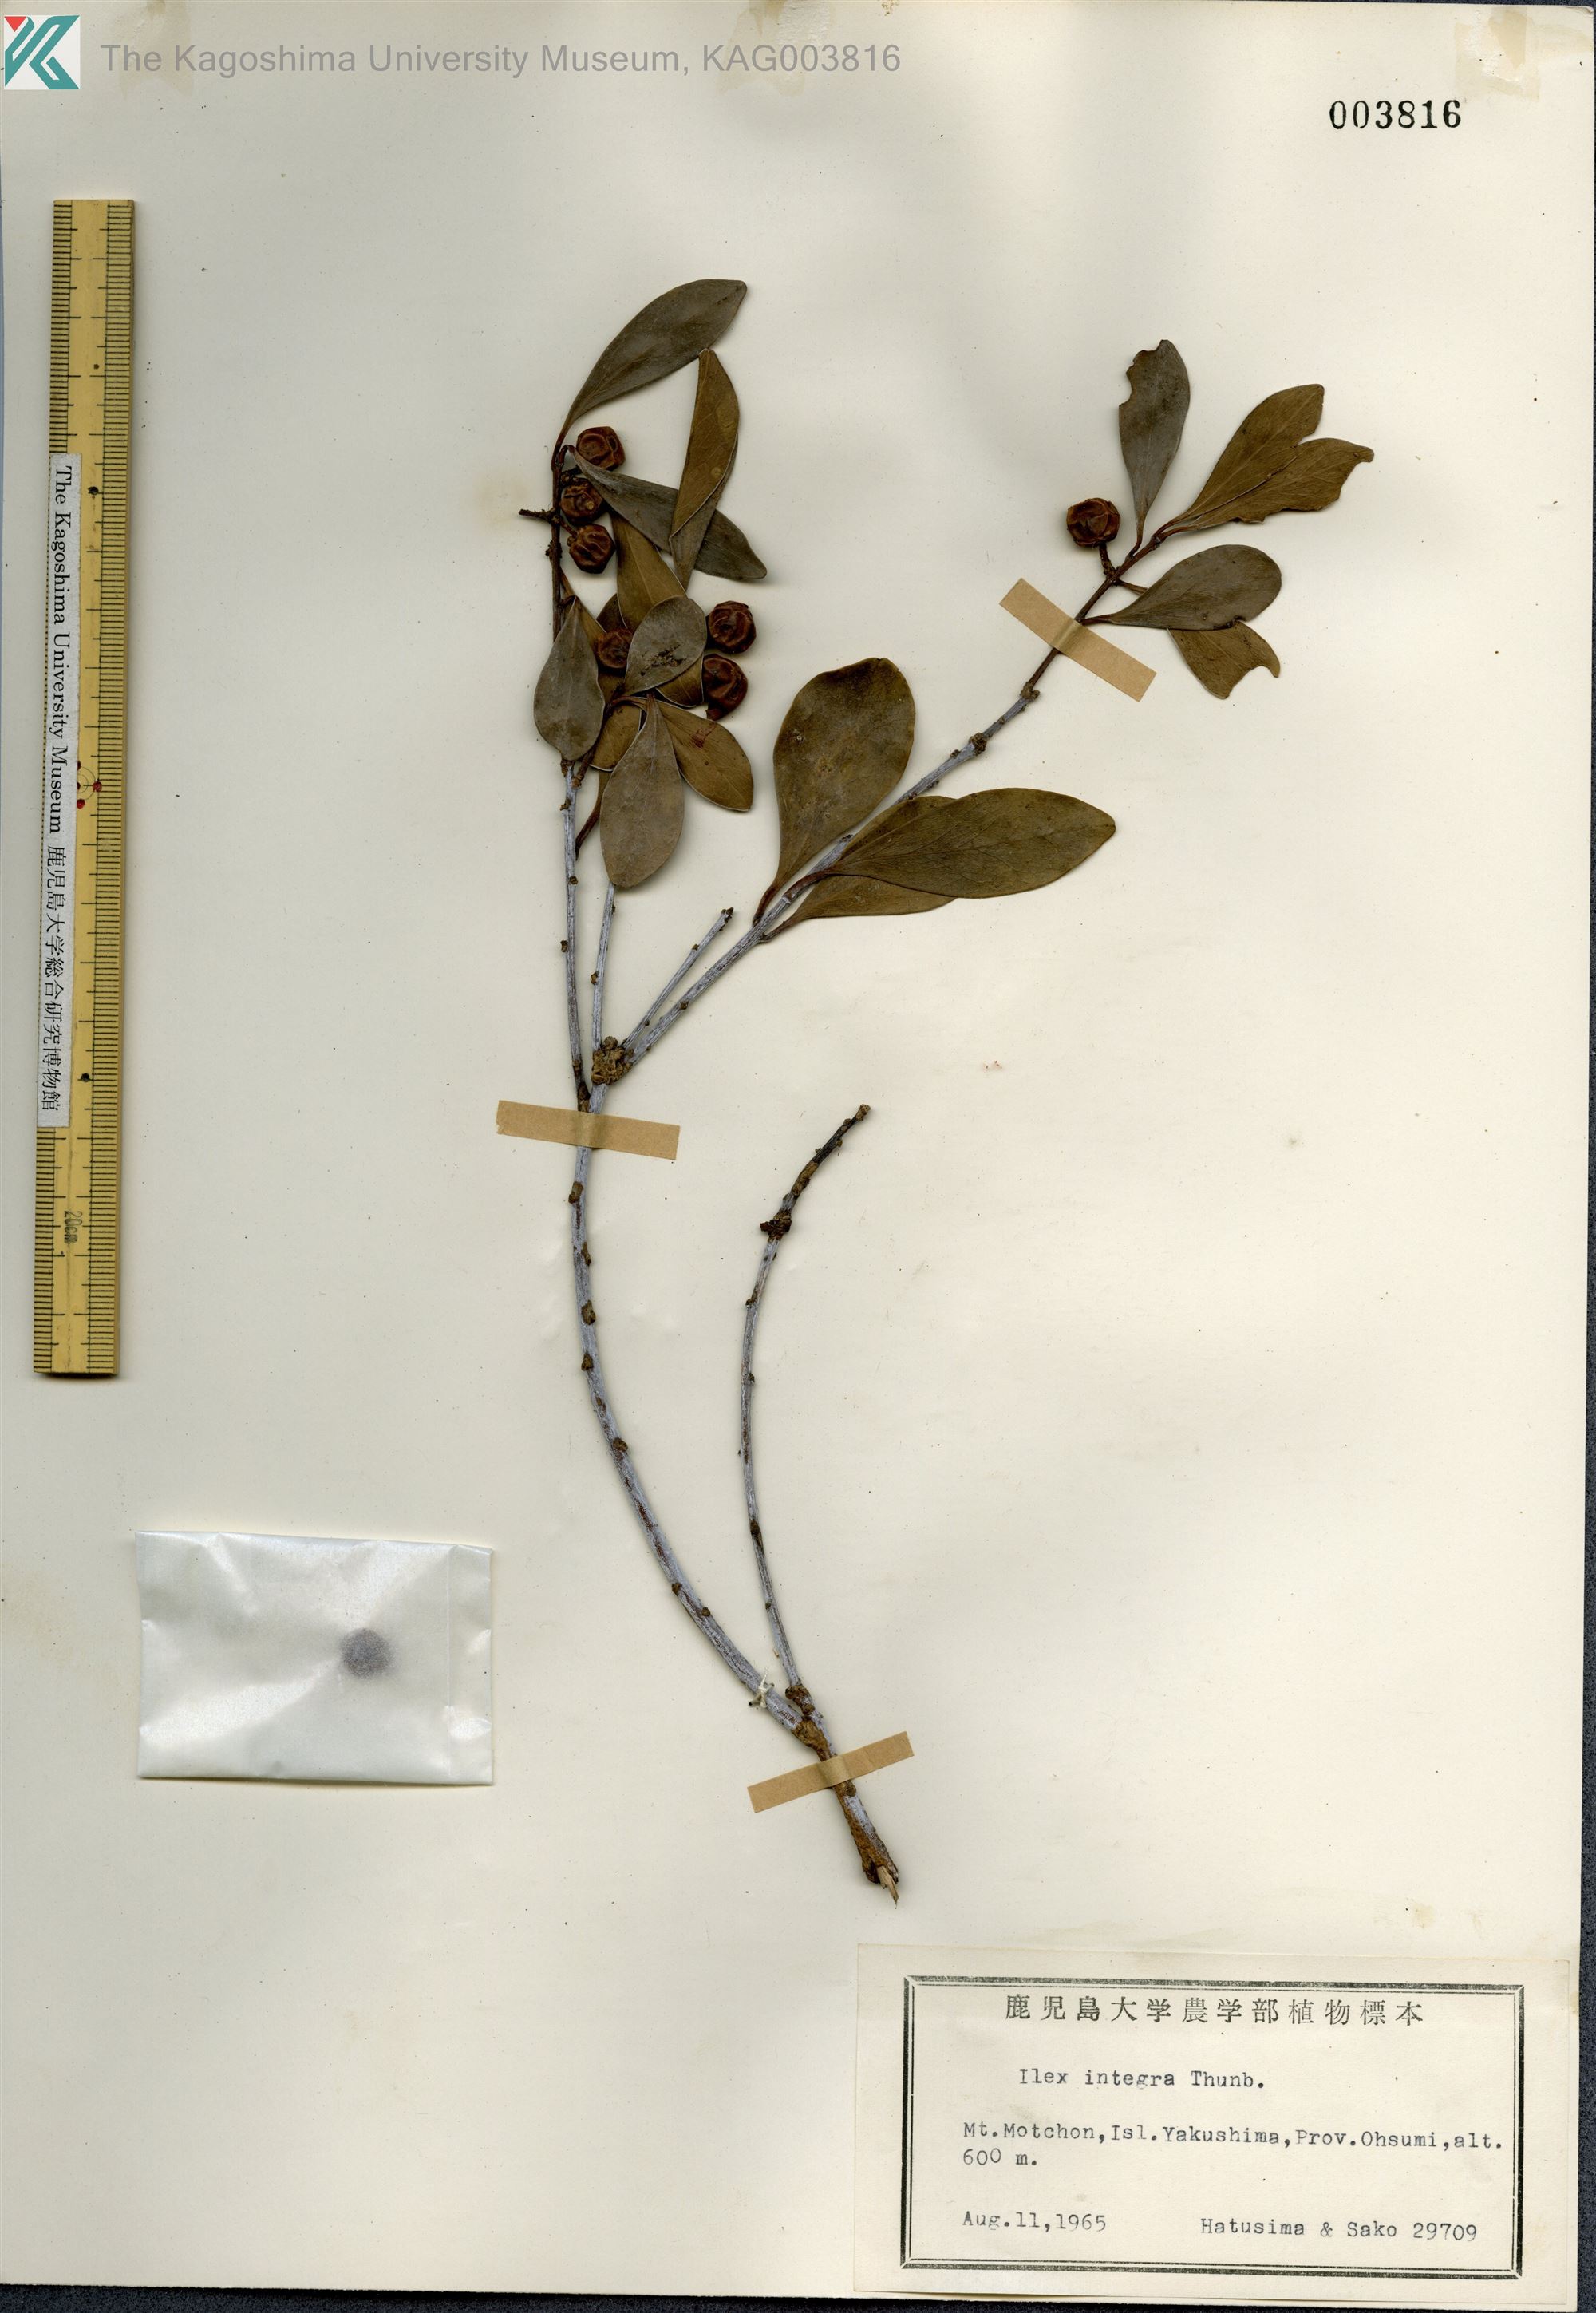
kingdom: Plantae
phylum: Tracheophyta
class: Magnoliopsida
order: Aquifoliales
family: Aquifoliaceae
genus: Ilex
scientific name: Ilex integra
